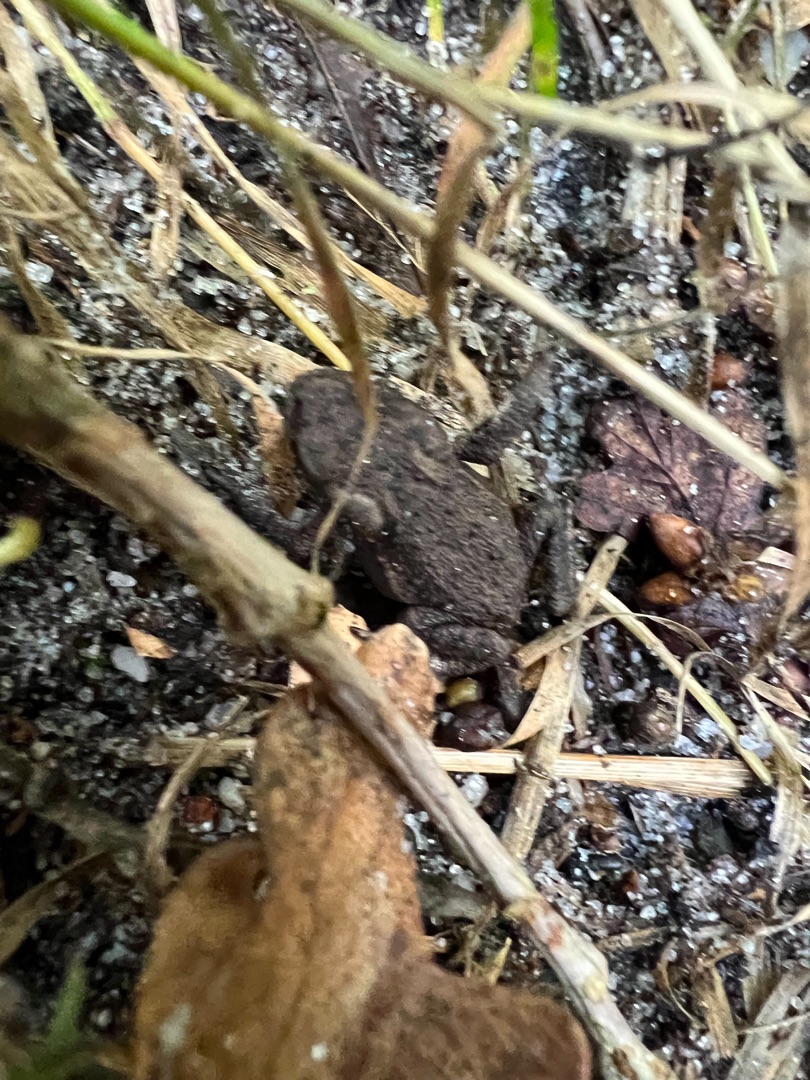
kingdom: Animalia
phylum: Chordata
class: Amphibia
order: Anura
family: Bufonidae
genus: Bufo
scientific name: Bufo bufo
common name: Skrubtudse
